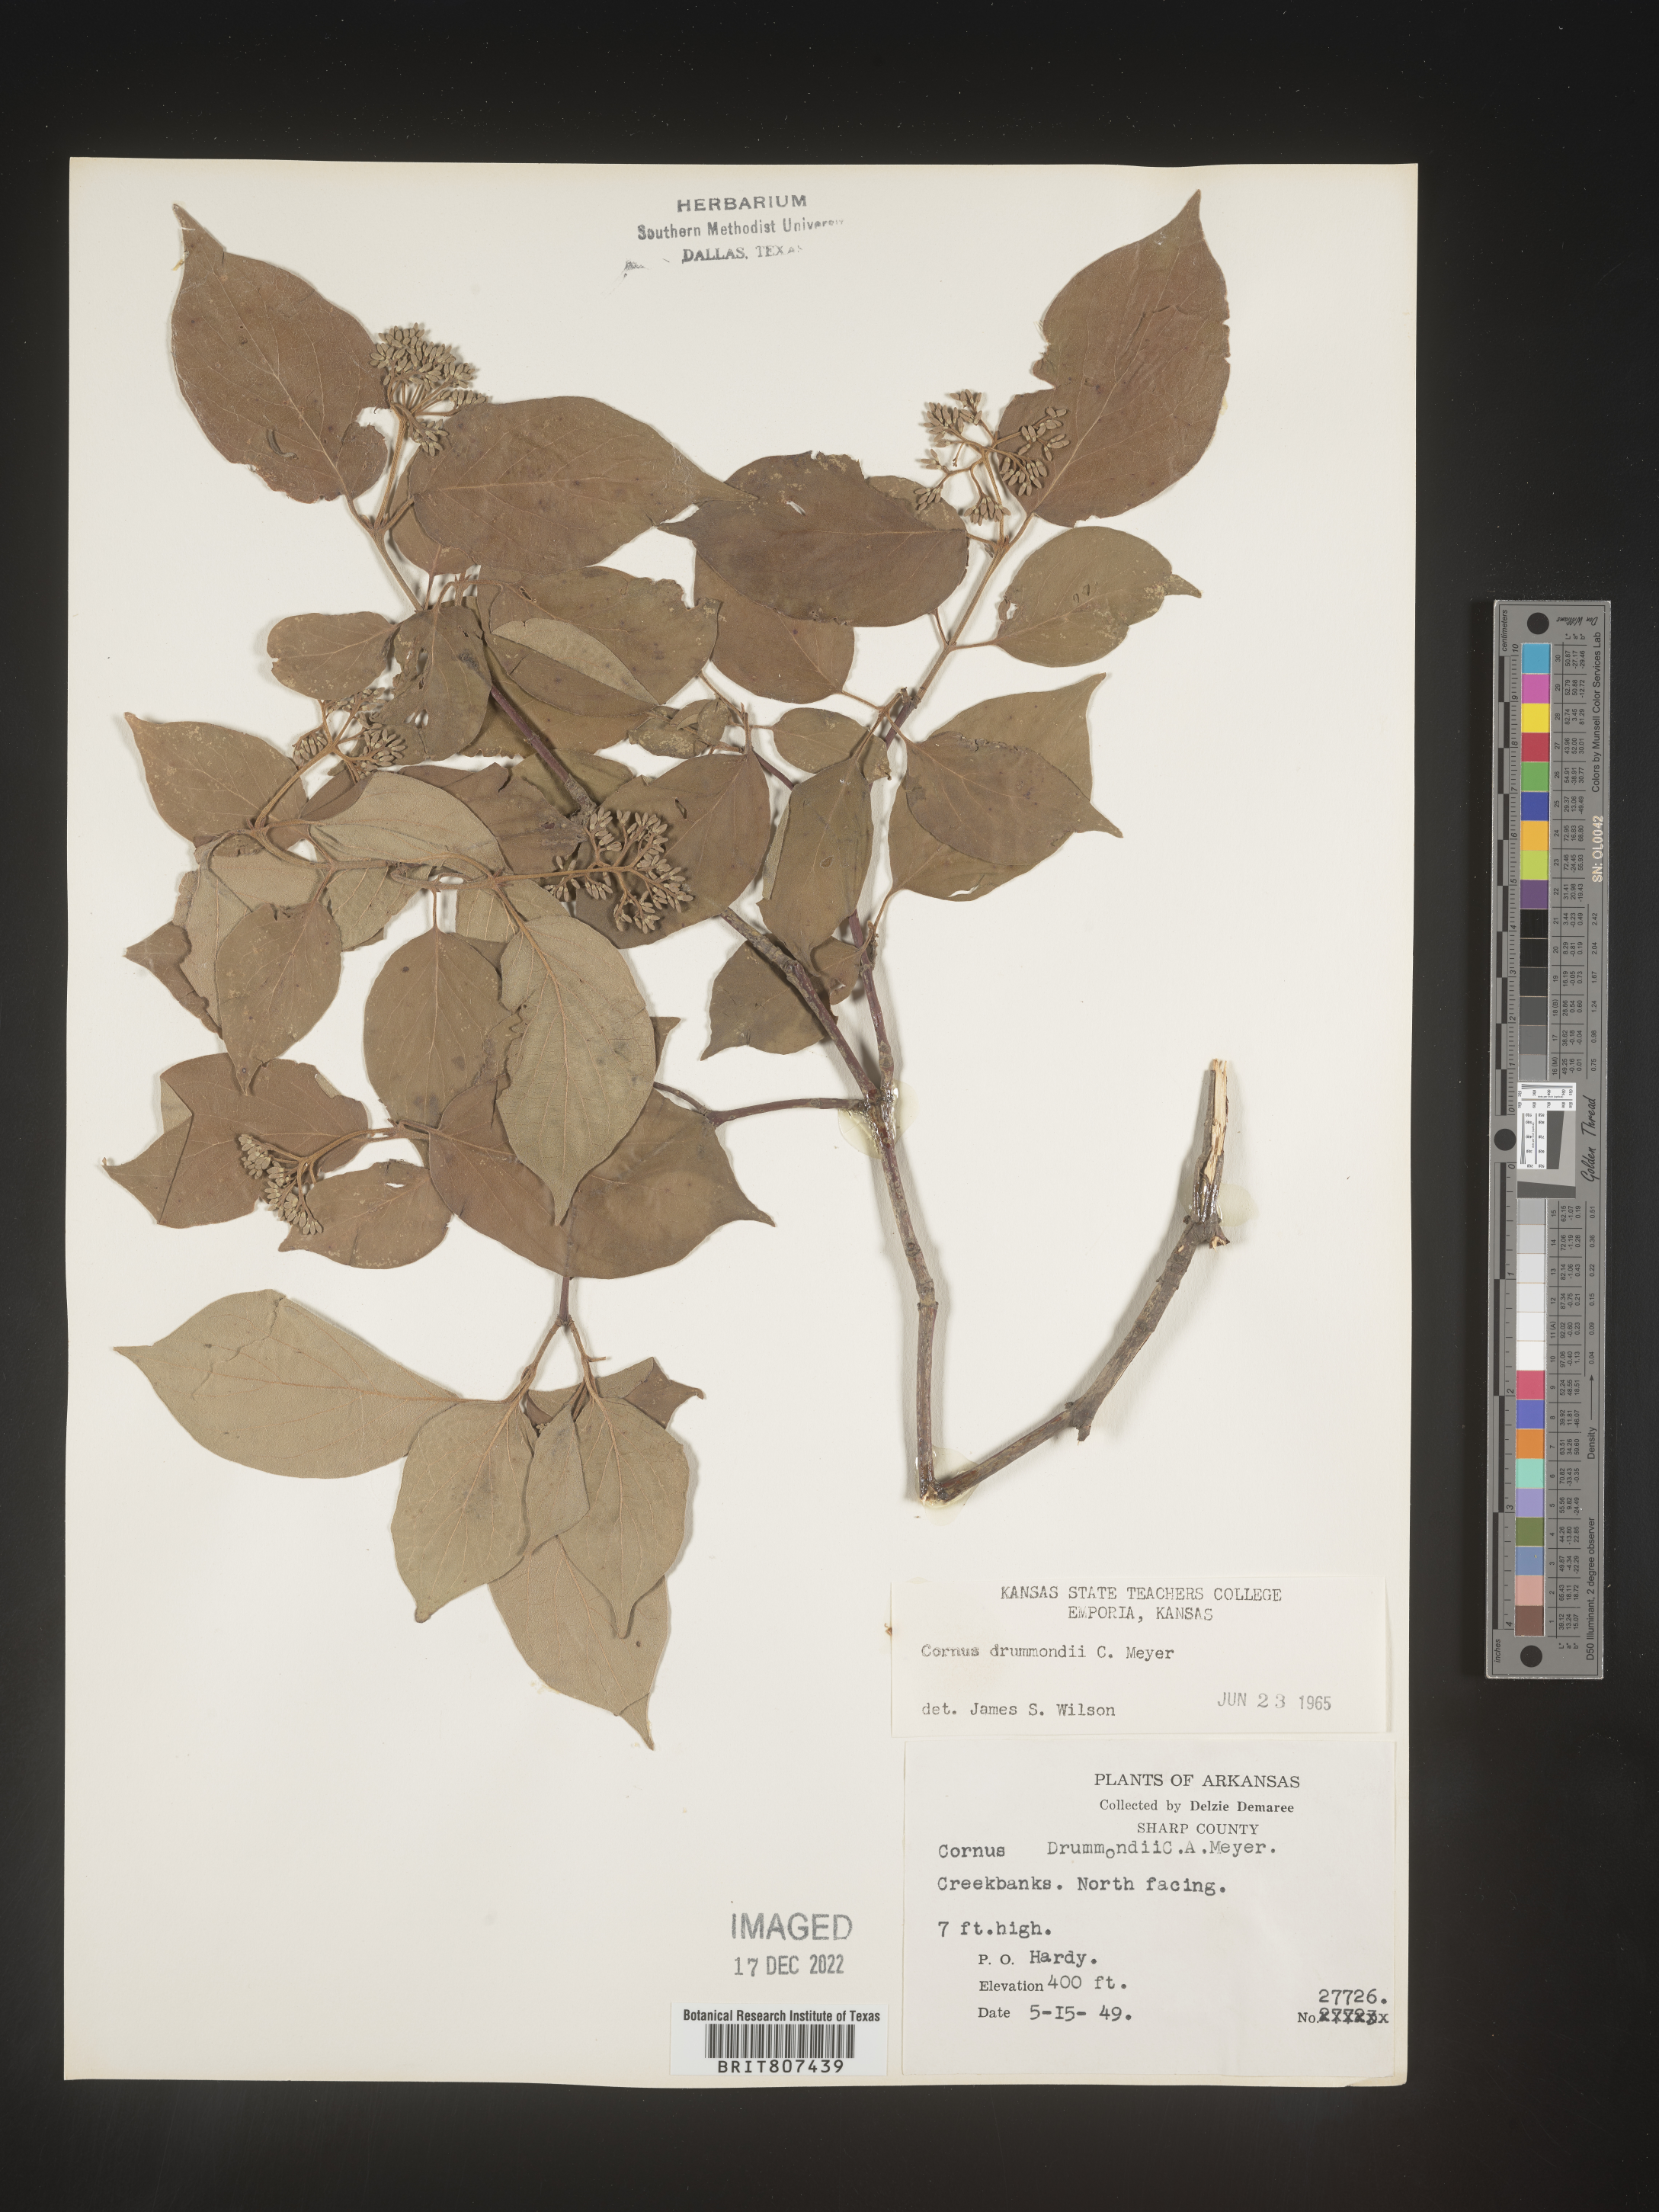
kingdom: Plantae
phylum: Tracheophyta
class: Magnoliopsida
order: Cornales
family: Cornaceae
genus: Cornus
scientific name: Cornus drummondii
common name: Rough-leaf dogwood
